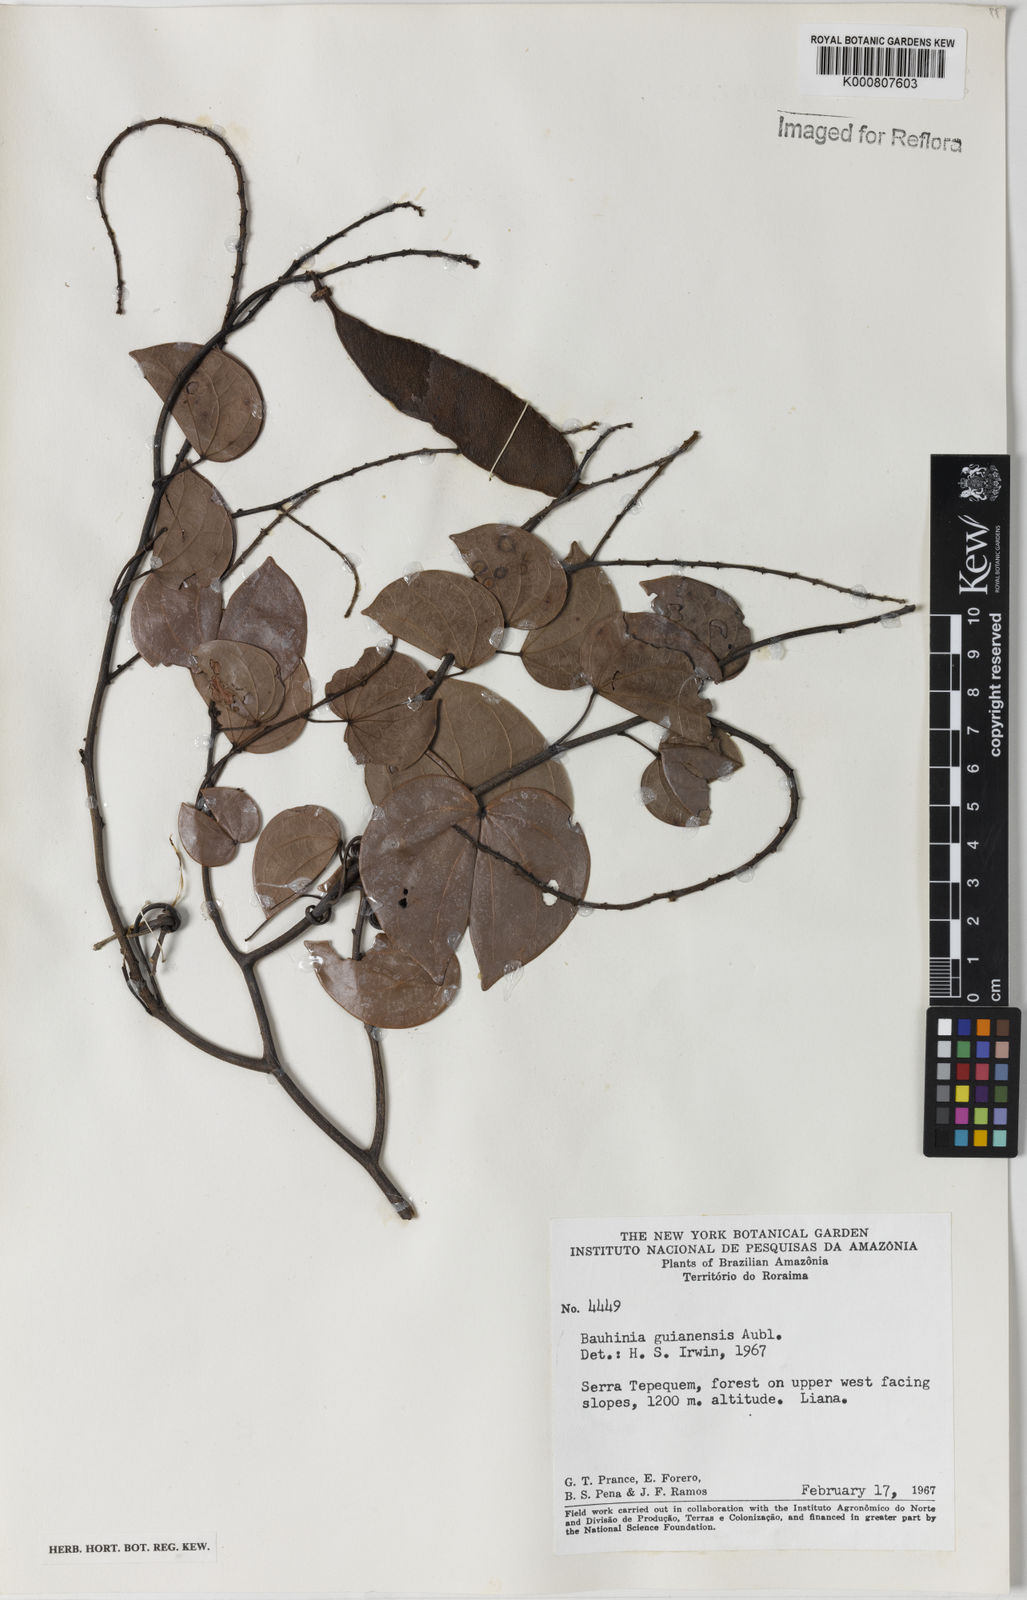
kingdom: Plantae
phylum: Tracheophyta
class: Magnoliopsida
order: Fabales
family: Fabaceae
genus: Schnella
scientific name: Schnella guianensis
